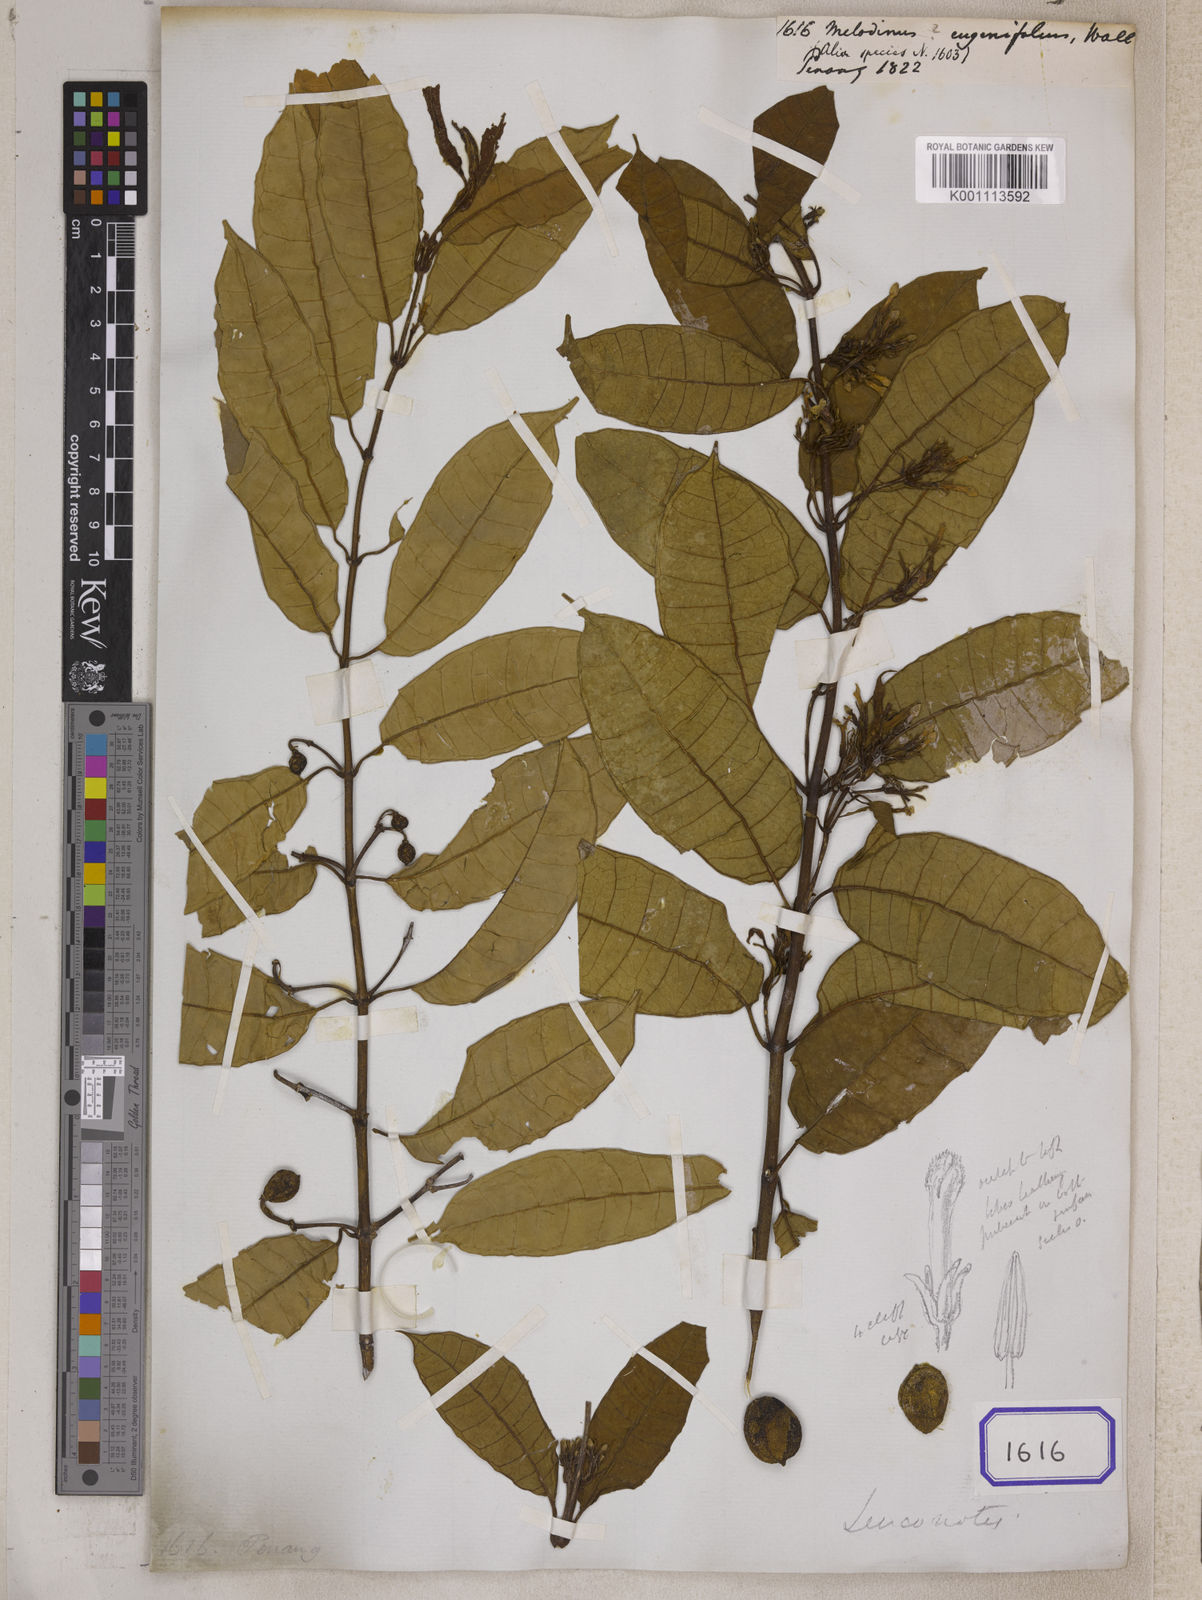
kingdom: Plantae
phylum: Tracheophyta
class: Magnoliopsida
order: Gentianales
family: Apocynaceae
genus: Melodinus
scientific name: Melodinus
